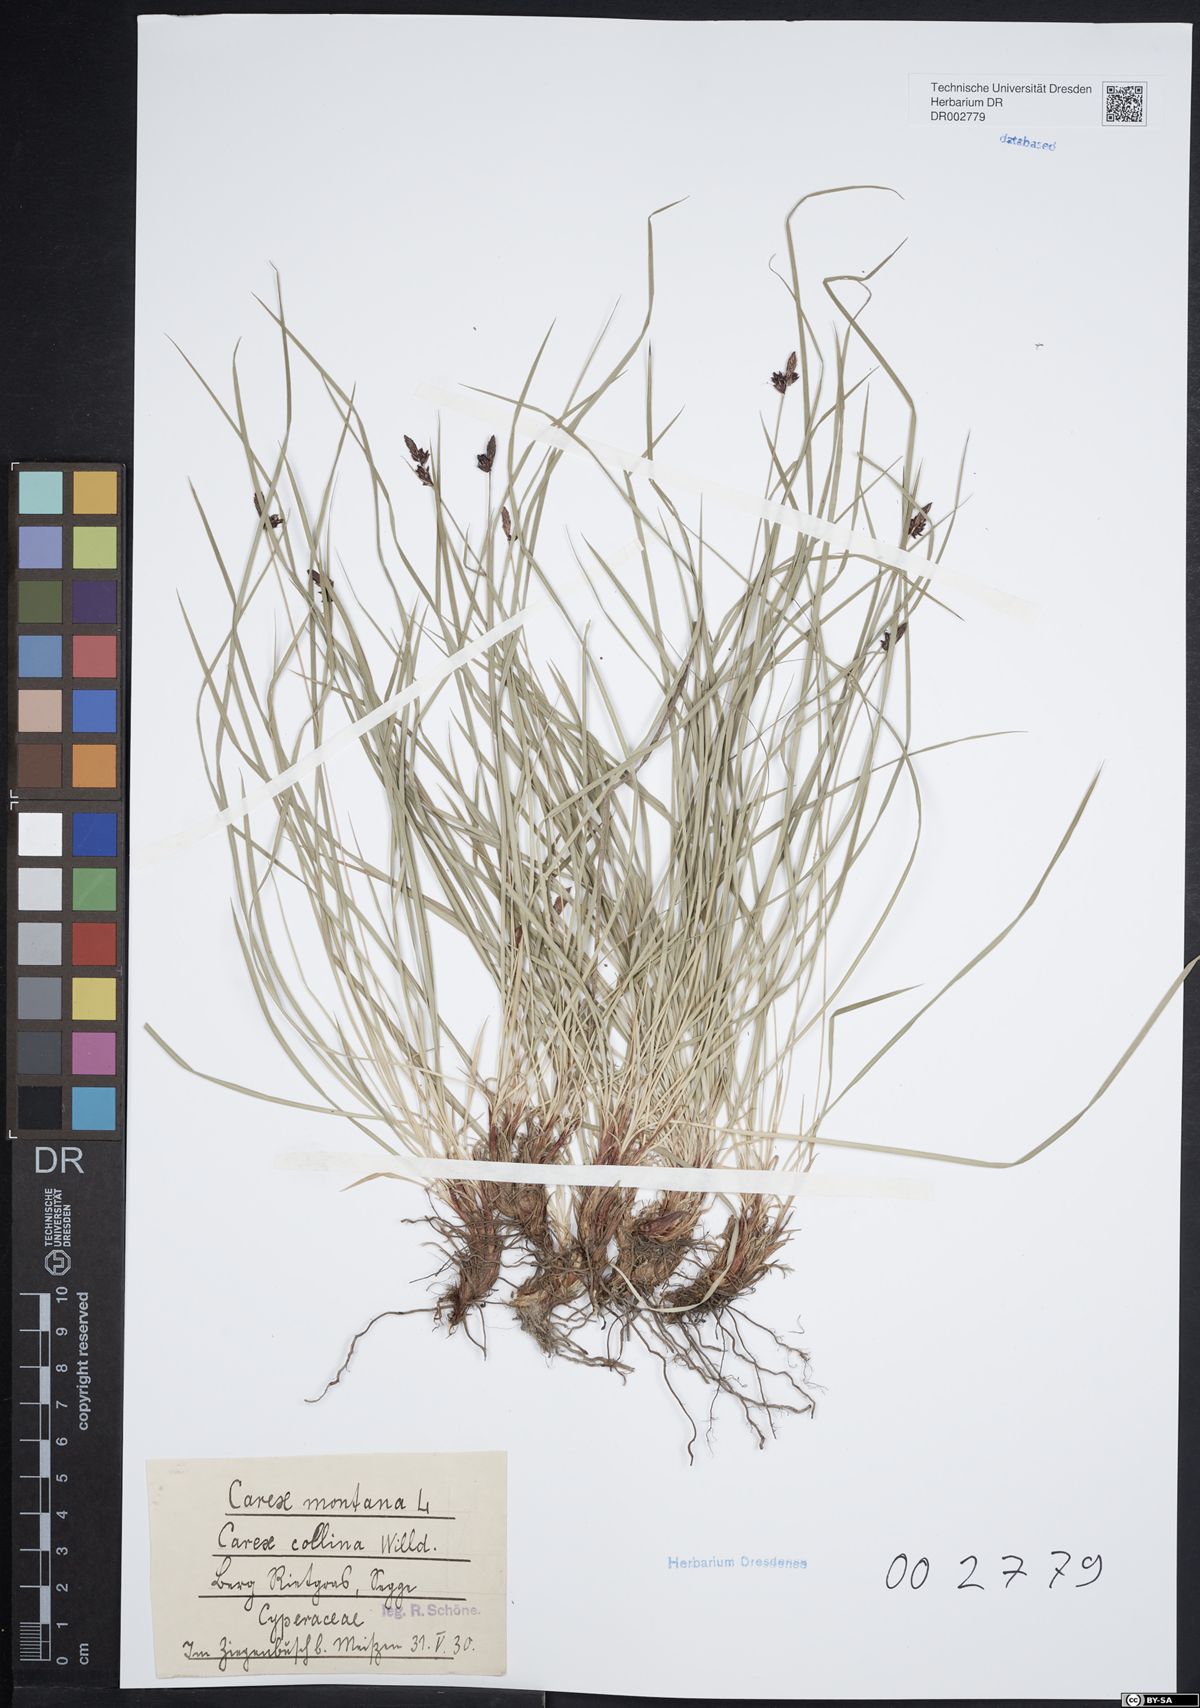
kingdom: Plantae
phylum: Tracheophyta
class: Liliopsida
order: Poales
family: Cyperaceae
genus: Carex
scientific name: Carex montana
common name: Soft-leaved sedge
